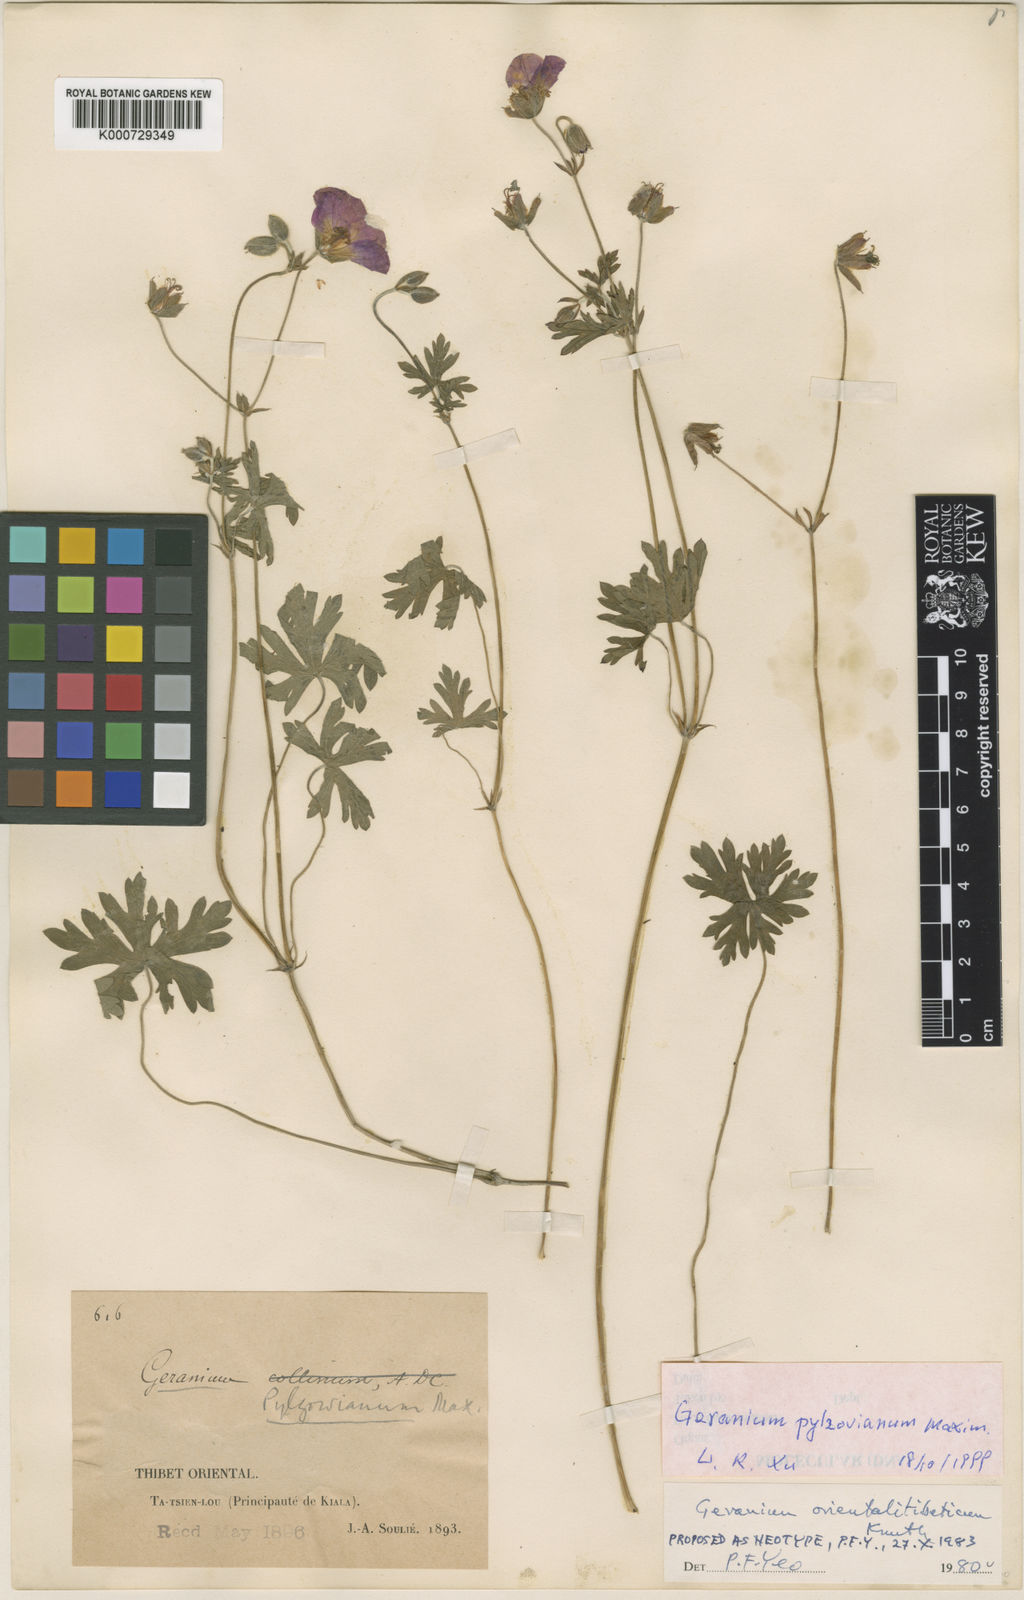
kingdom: Plantae
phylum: Tracheophyta
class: Magnoliopsida
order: Geraniales
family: Geraniaceae
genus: Geranium
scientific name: Geranium pylzowianum
